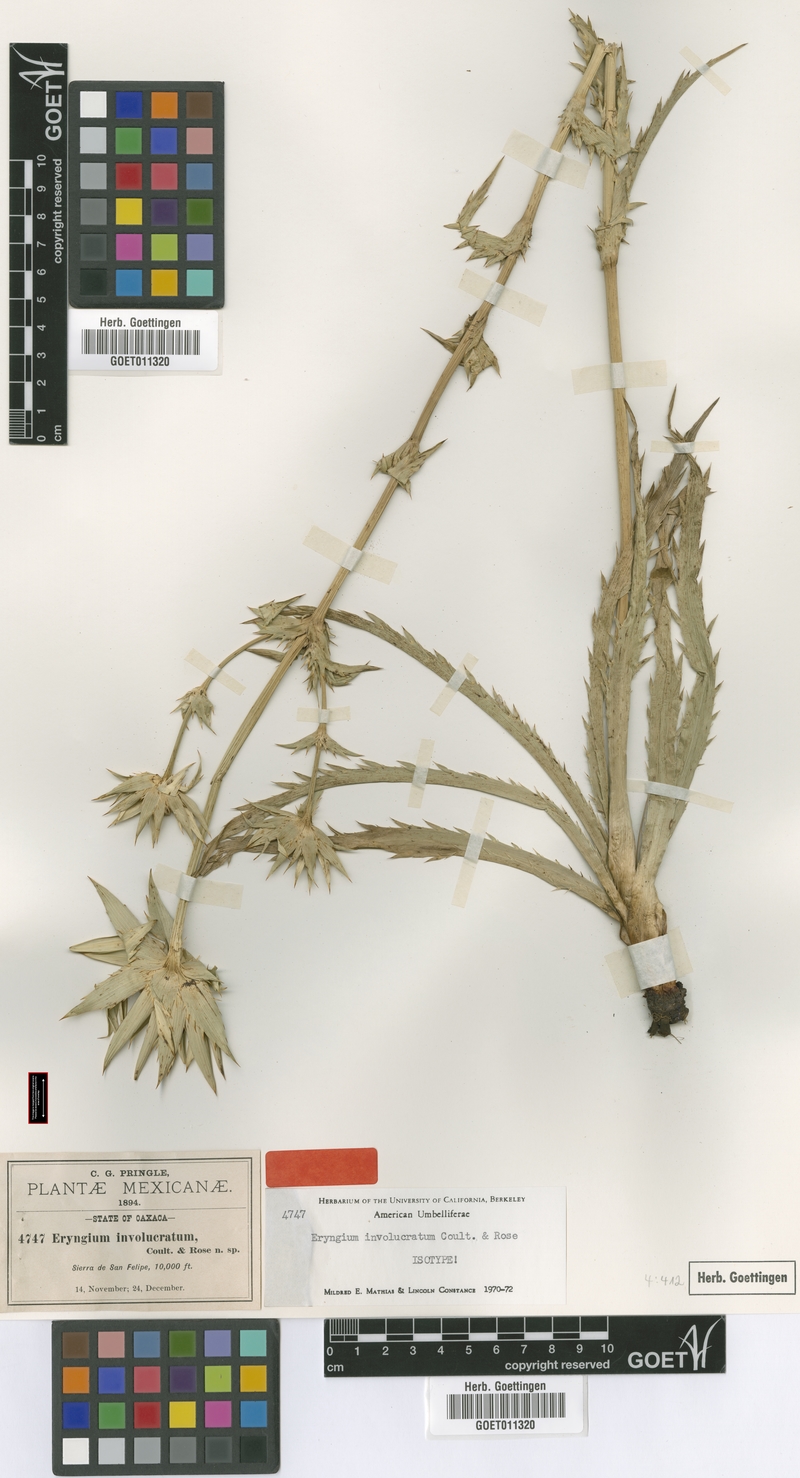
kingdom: Plantae
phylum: Tracheophyta
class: Magnoliopsida
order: Apiales
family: Apiaceae
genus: Eryngium
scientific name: Eryngium monocephalum
